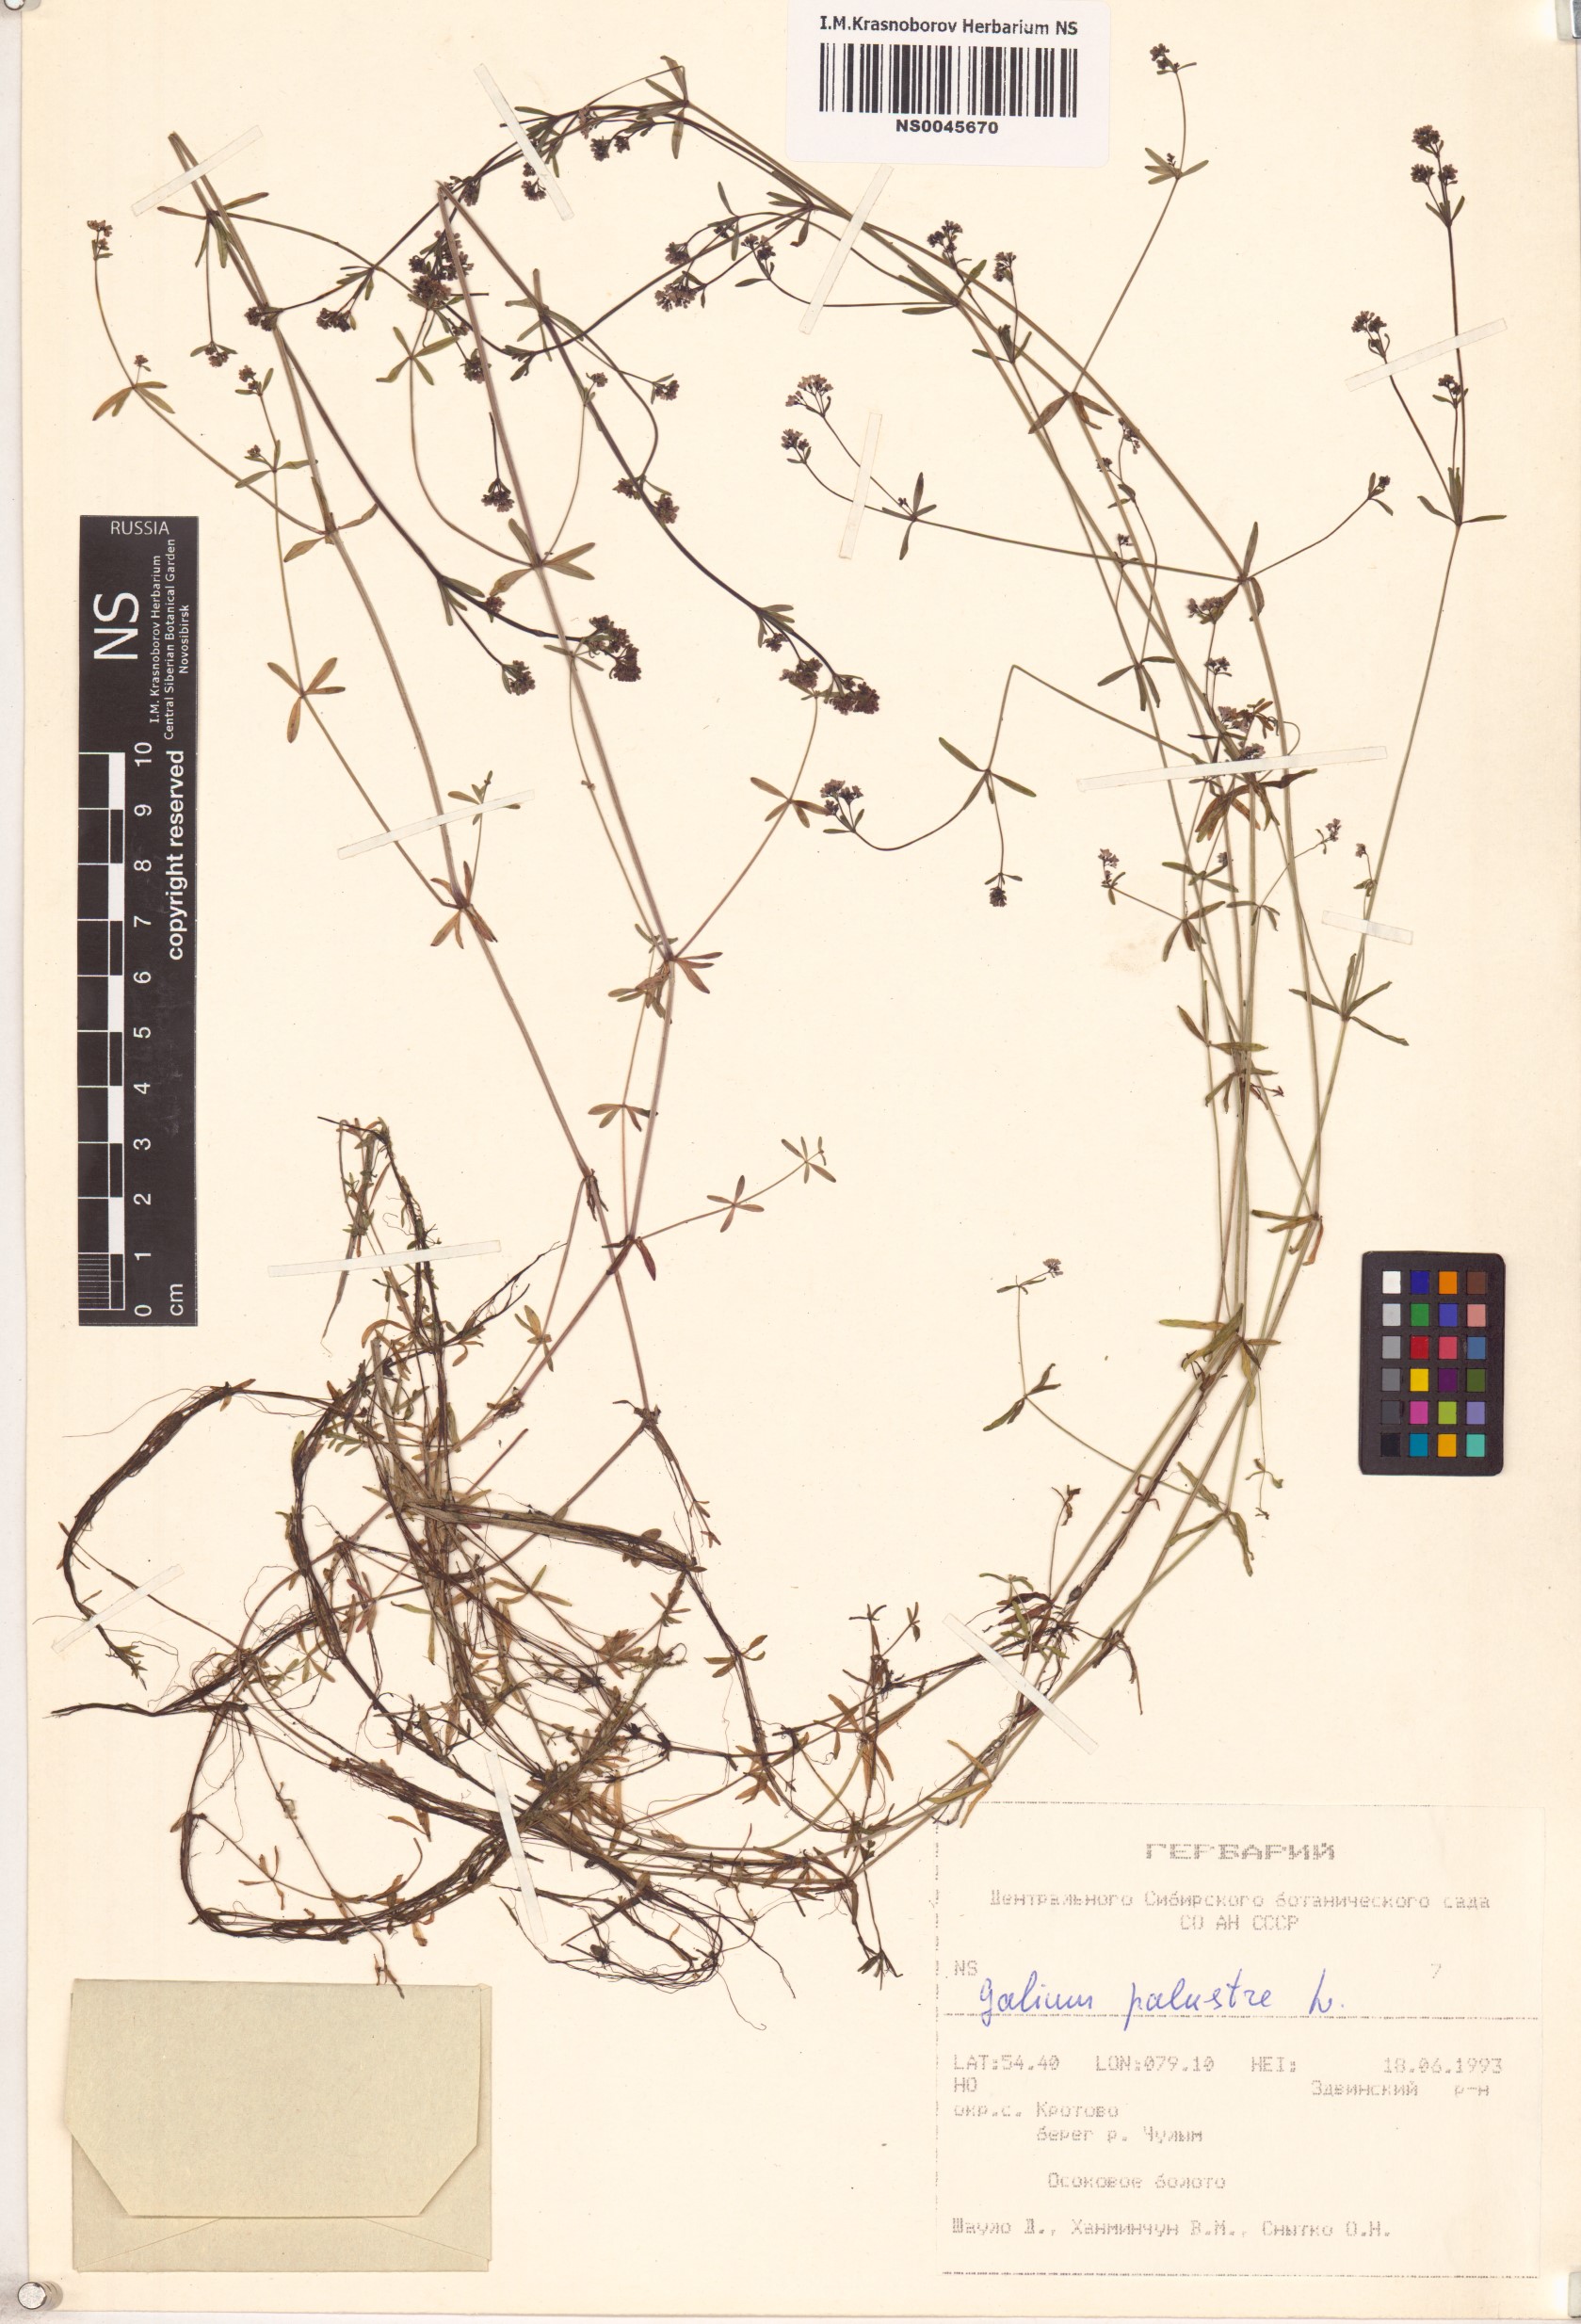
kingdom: Plantae
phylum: Tracheophyta
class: Magnoliopsida
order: Gentianales
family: Rubiaceae
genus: Galium
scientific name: Galium palustre
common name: Common marsh-bedstraw
